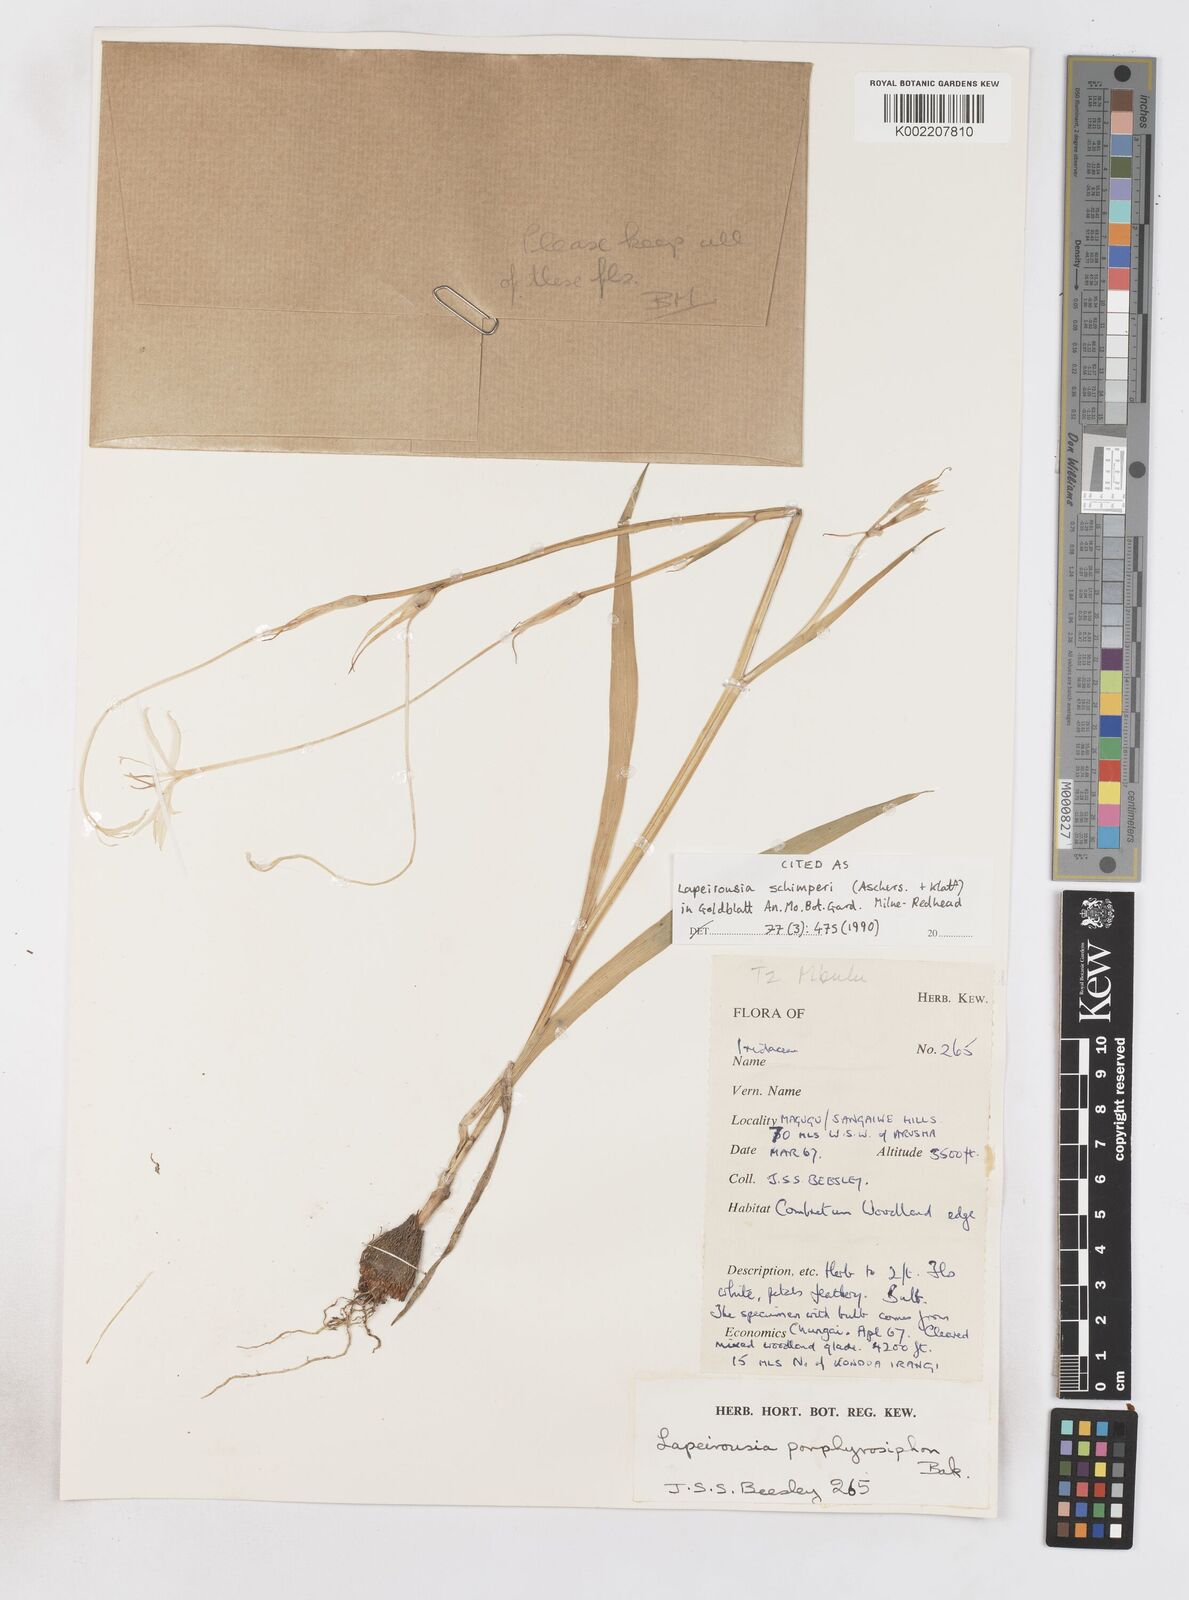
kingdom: Plantae
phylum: Tracheophyta
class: Liliopsida
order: Asparagales
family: Iridaceae
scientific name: Iridaceae
